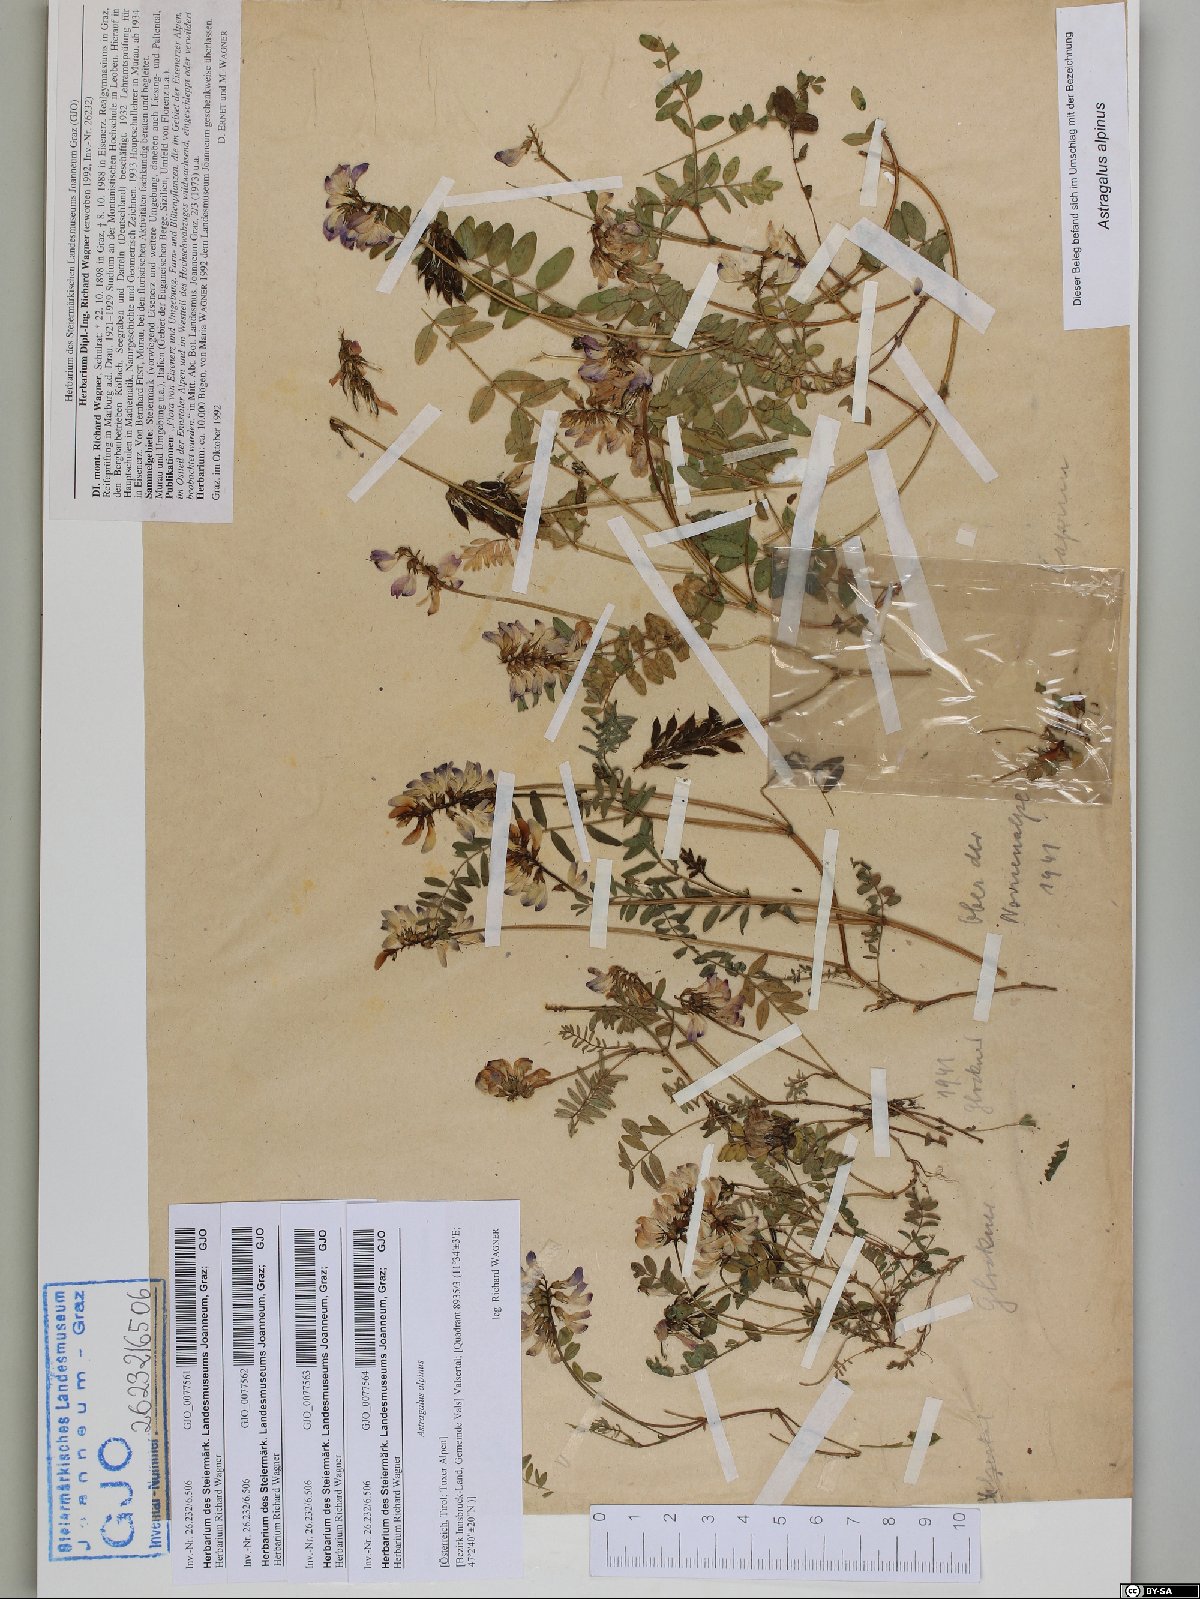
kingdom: Plantae
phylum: Tracheophyta
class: Magnoliopsida
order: Fabales
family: Fabaceae
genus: Astragalus
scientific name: Astragalus alpinus
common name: Alpine milk-vetch
